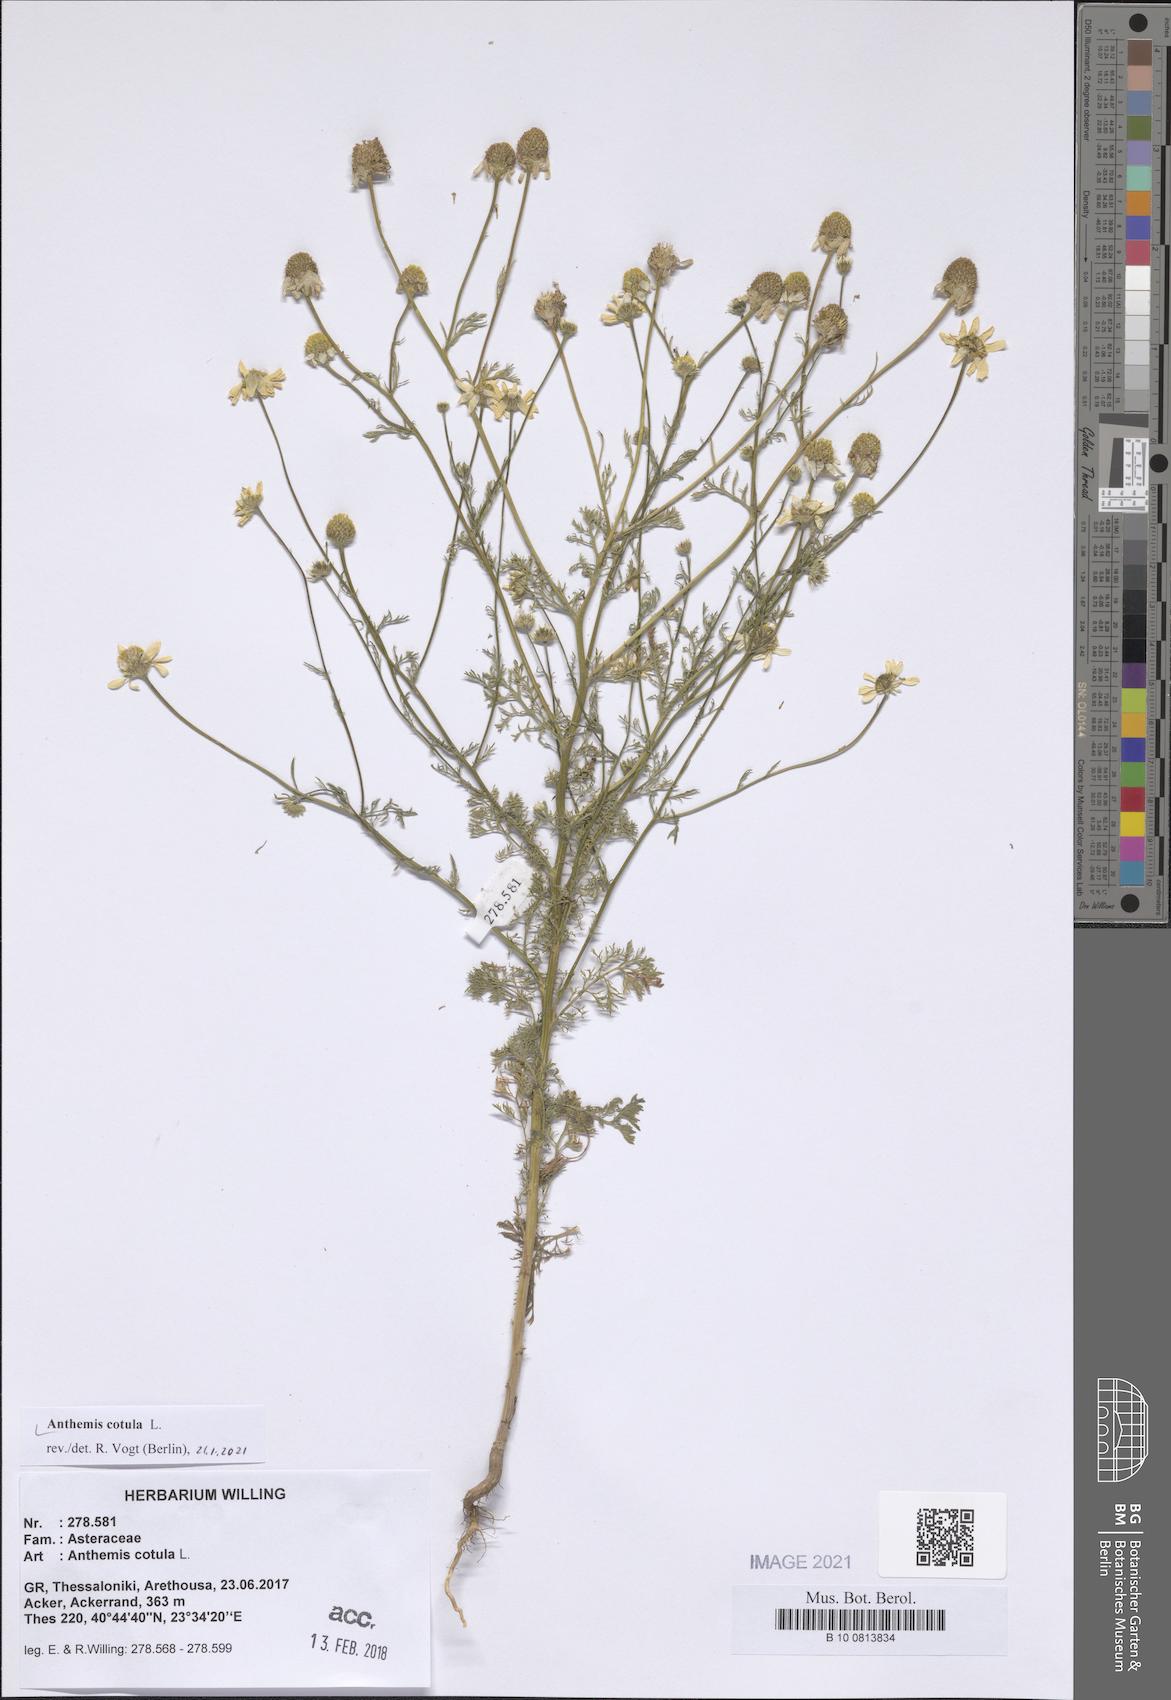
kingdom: Plantae
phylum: Tracheophyta
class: Magnoliopsida
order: Asterales
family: Asteraceae
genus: Anthemis
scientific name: Anthemis cotula
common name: Stinking chamomile
